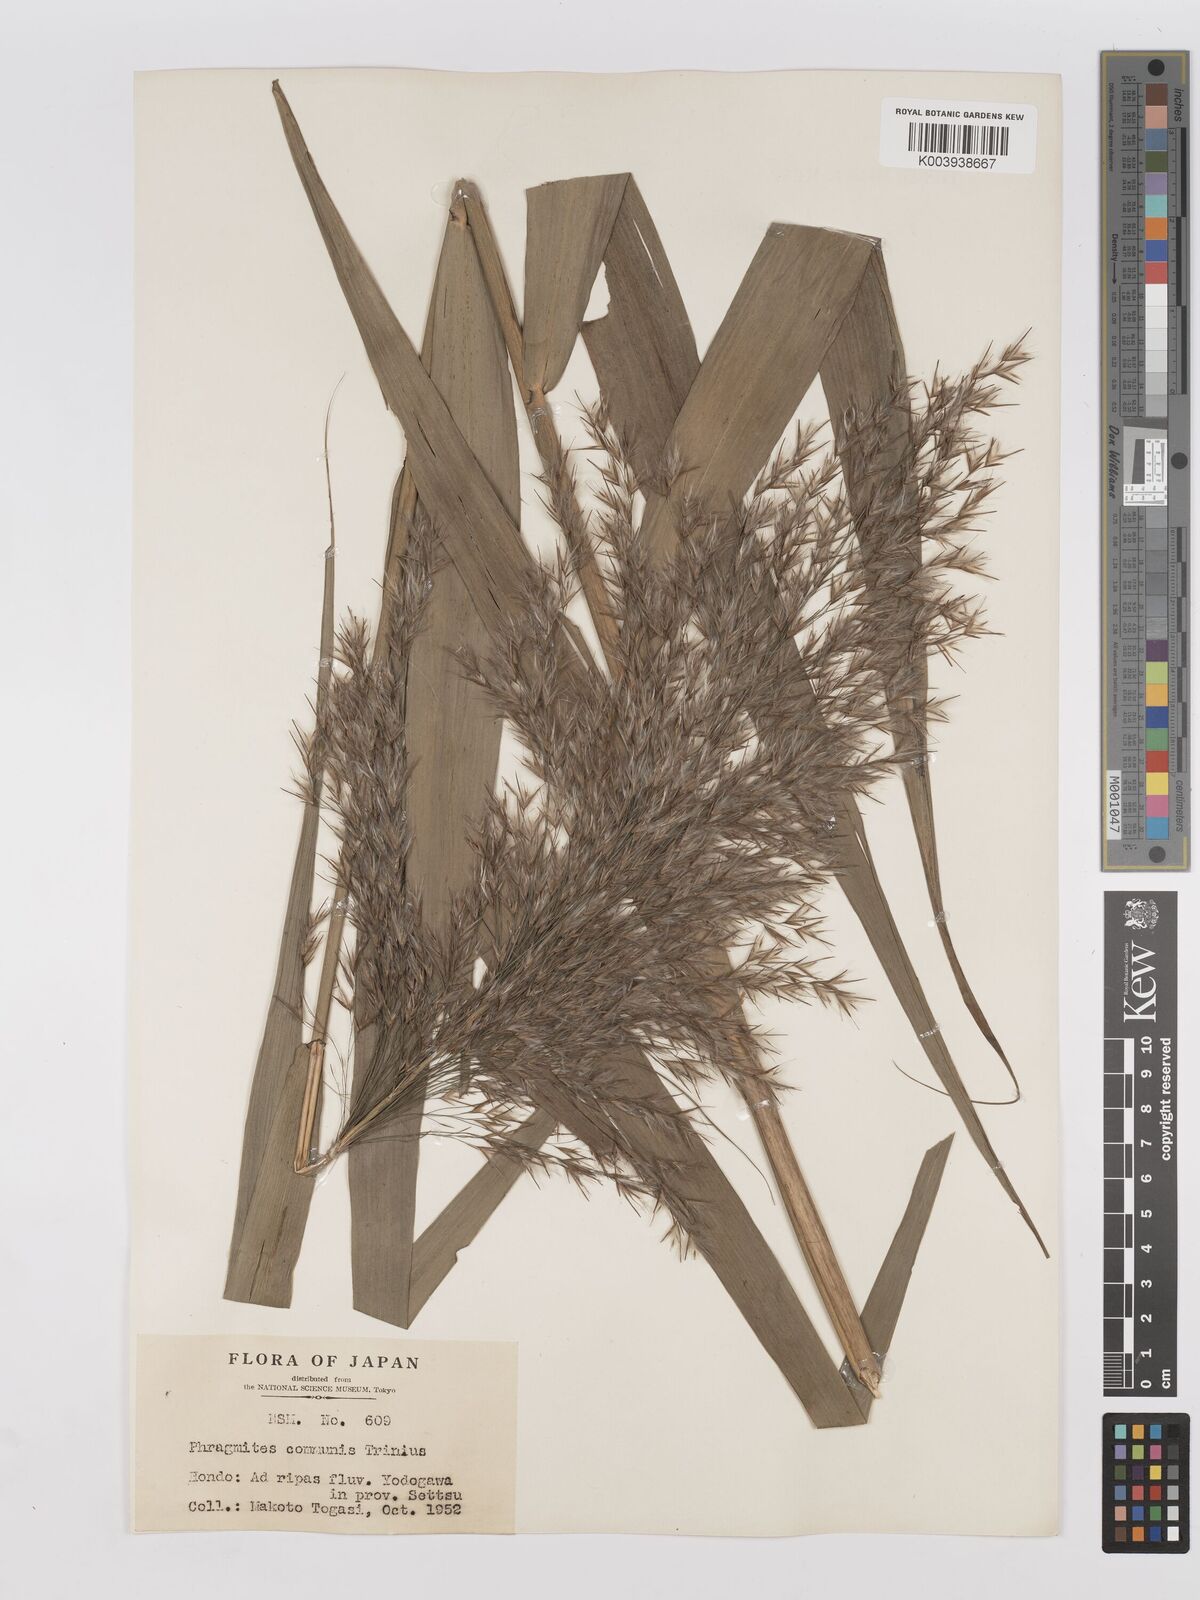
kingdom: Plantae
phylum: Tracheophyta
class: Liliopsida
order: Poales
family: Poaceae
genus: Phragmites
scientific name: Phragmites australis
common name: Common reed
